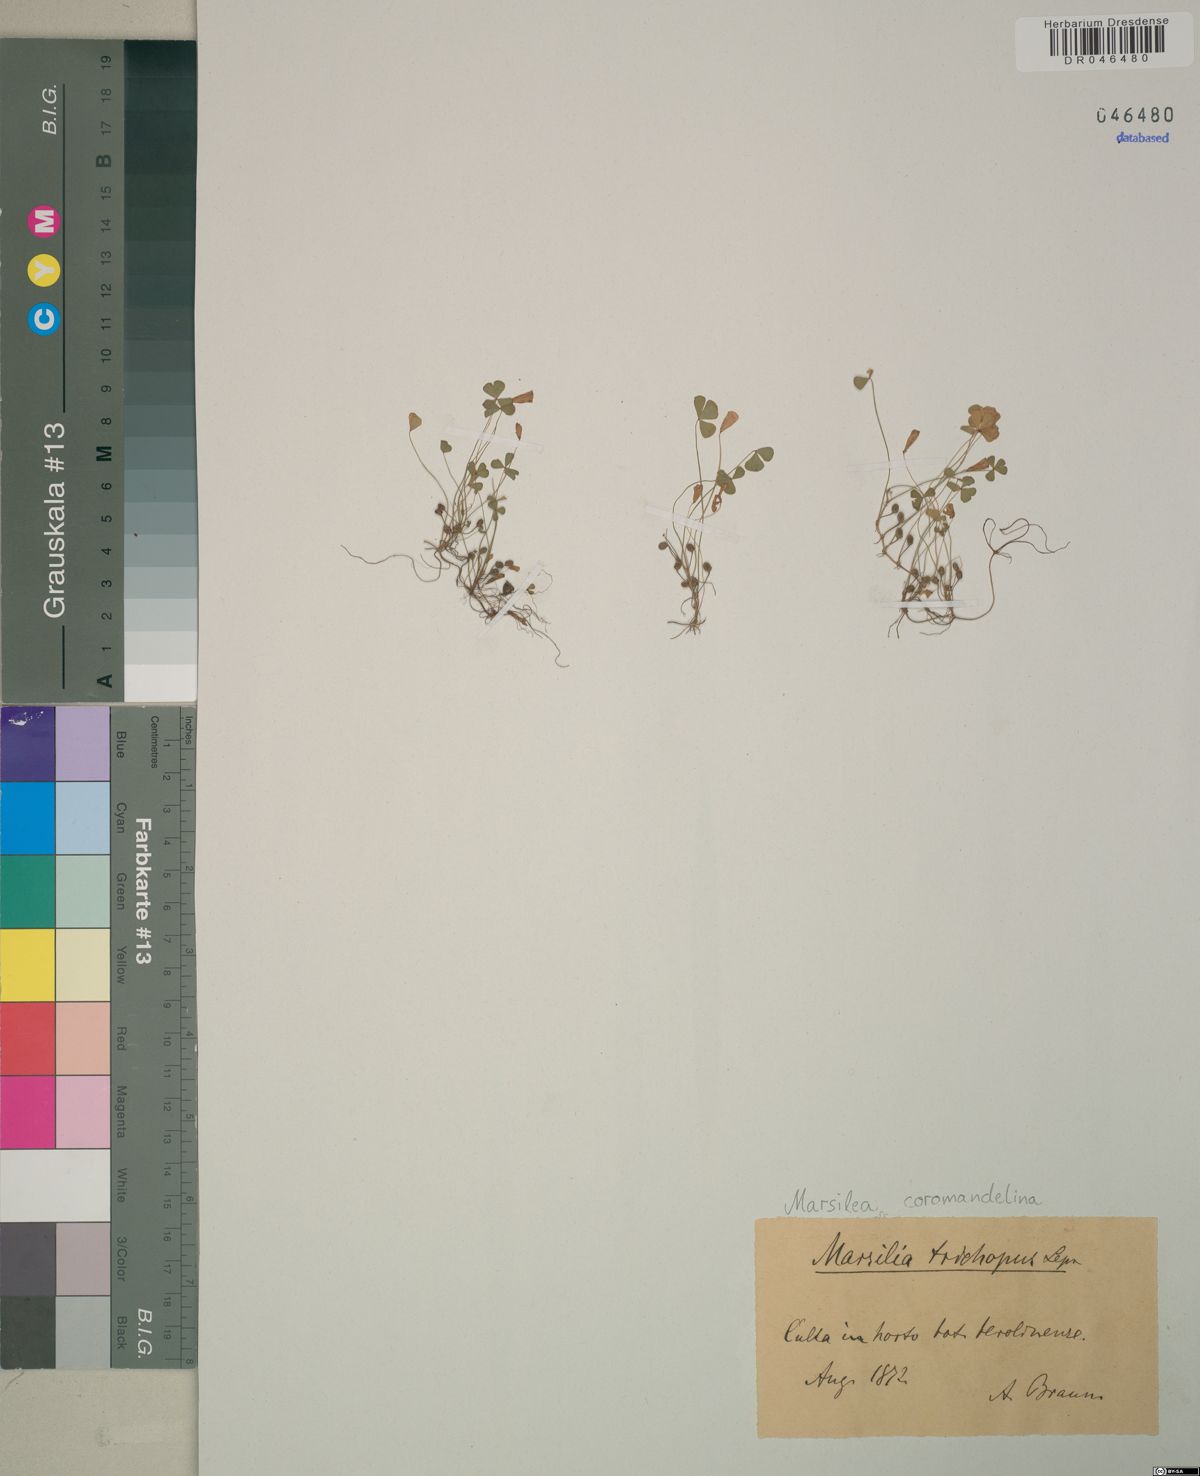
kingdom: Plantae
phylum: Tracheophyta
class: Polypodiopsida
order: Salviniales
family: Marsileaceae
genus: Marsilea
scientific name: Marsilea coromandelina
